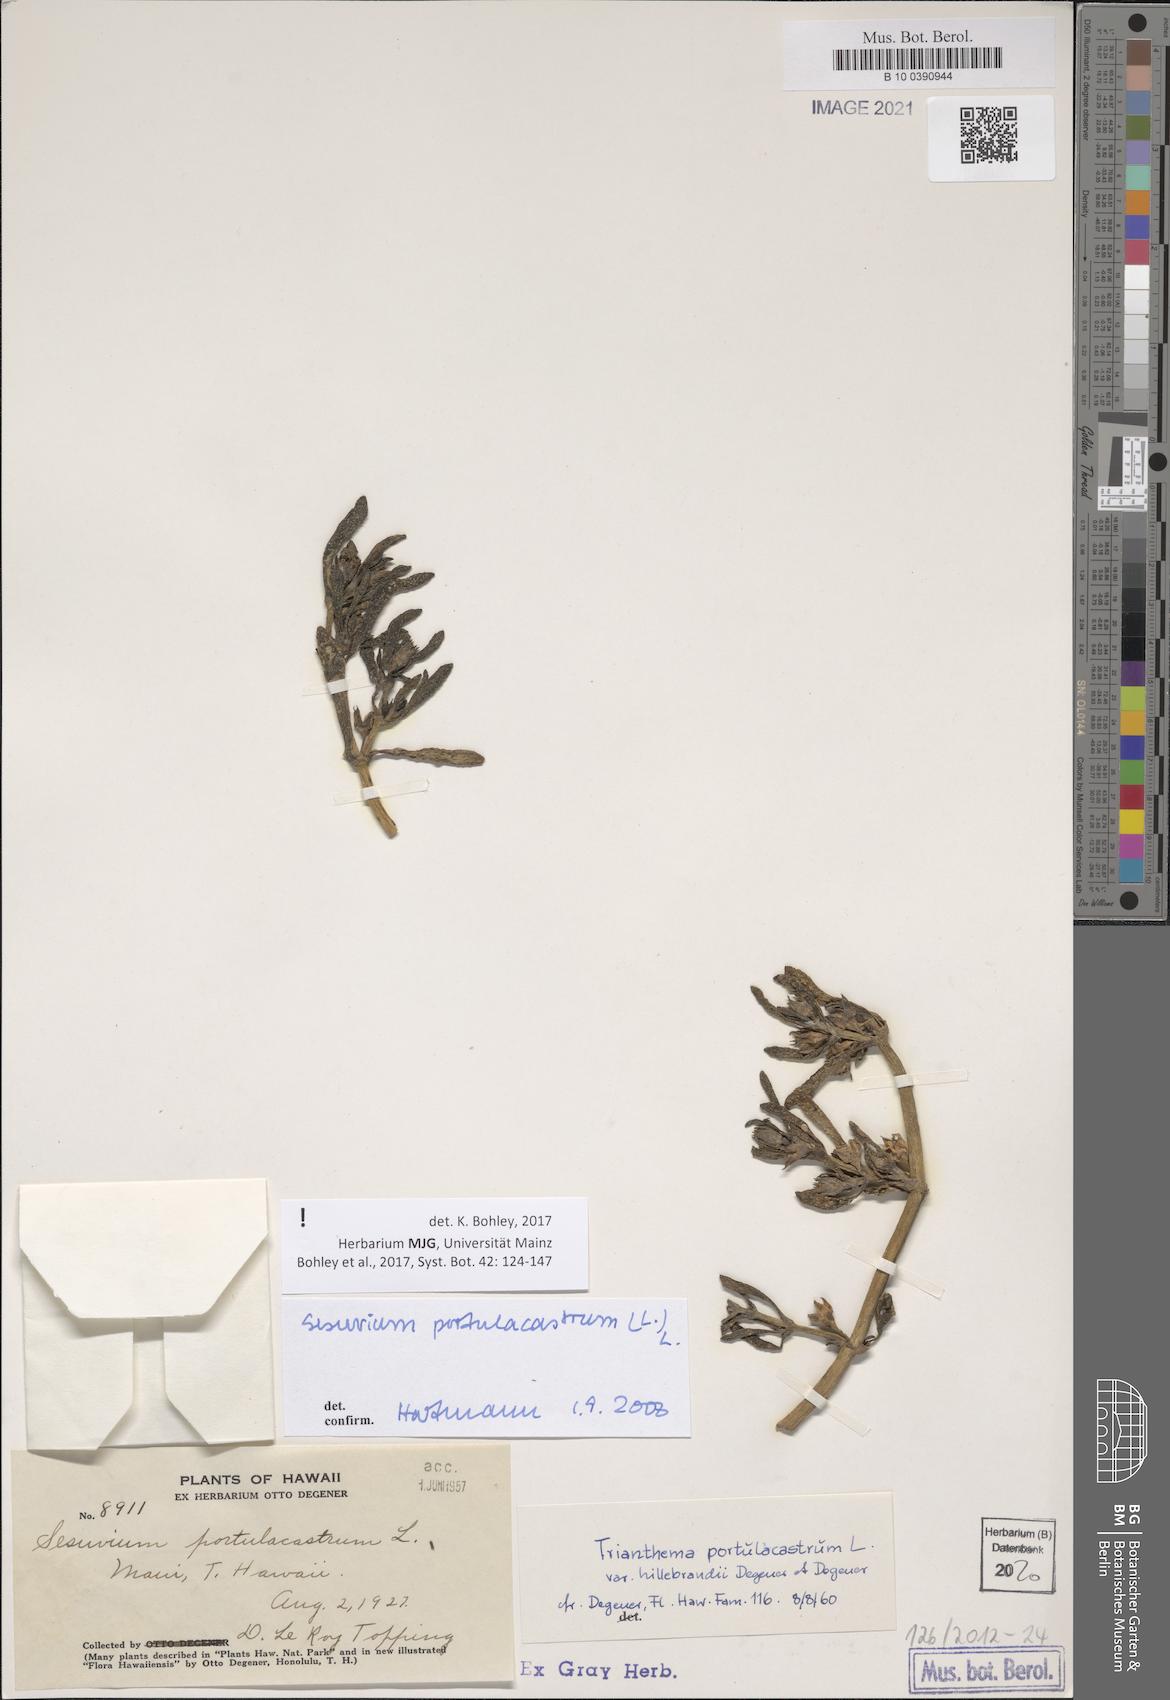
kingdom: Plantae
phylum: Tracheophyta
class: Magnoliopsida
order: Caryophyllales
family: Aizoaceae
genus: Sesuvium
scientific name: Sesuvium portulacastrum
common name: Sea-purslane
